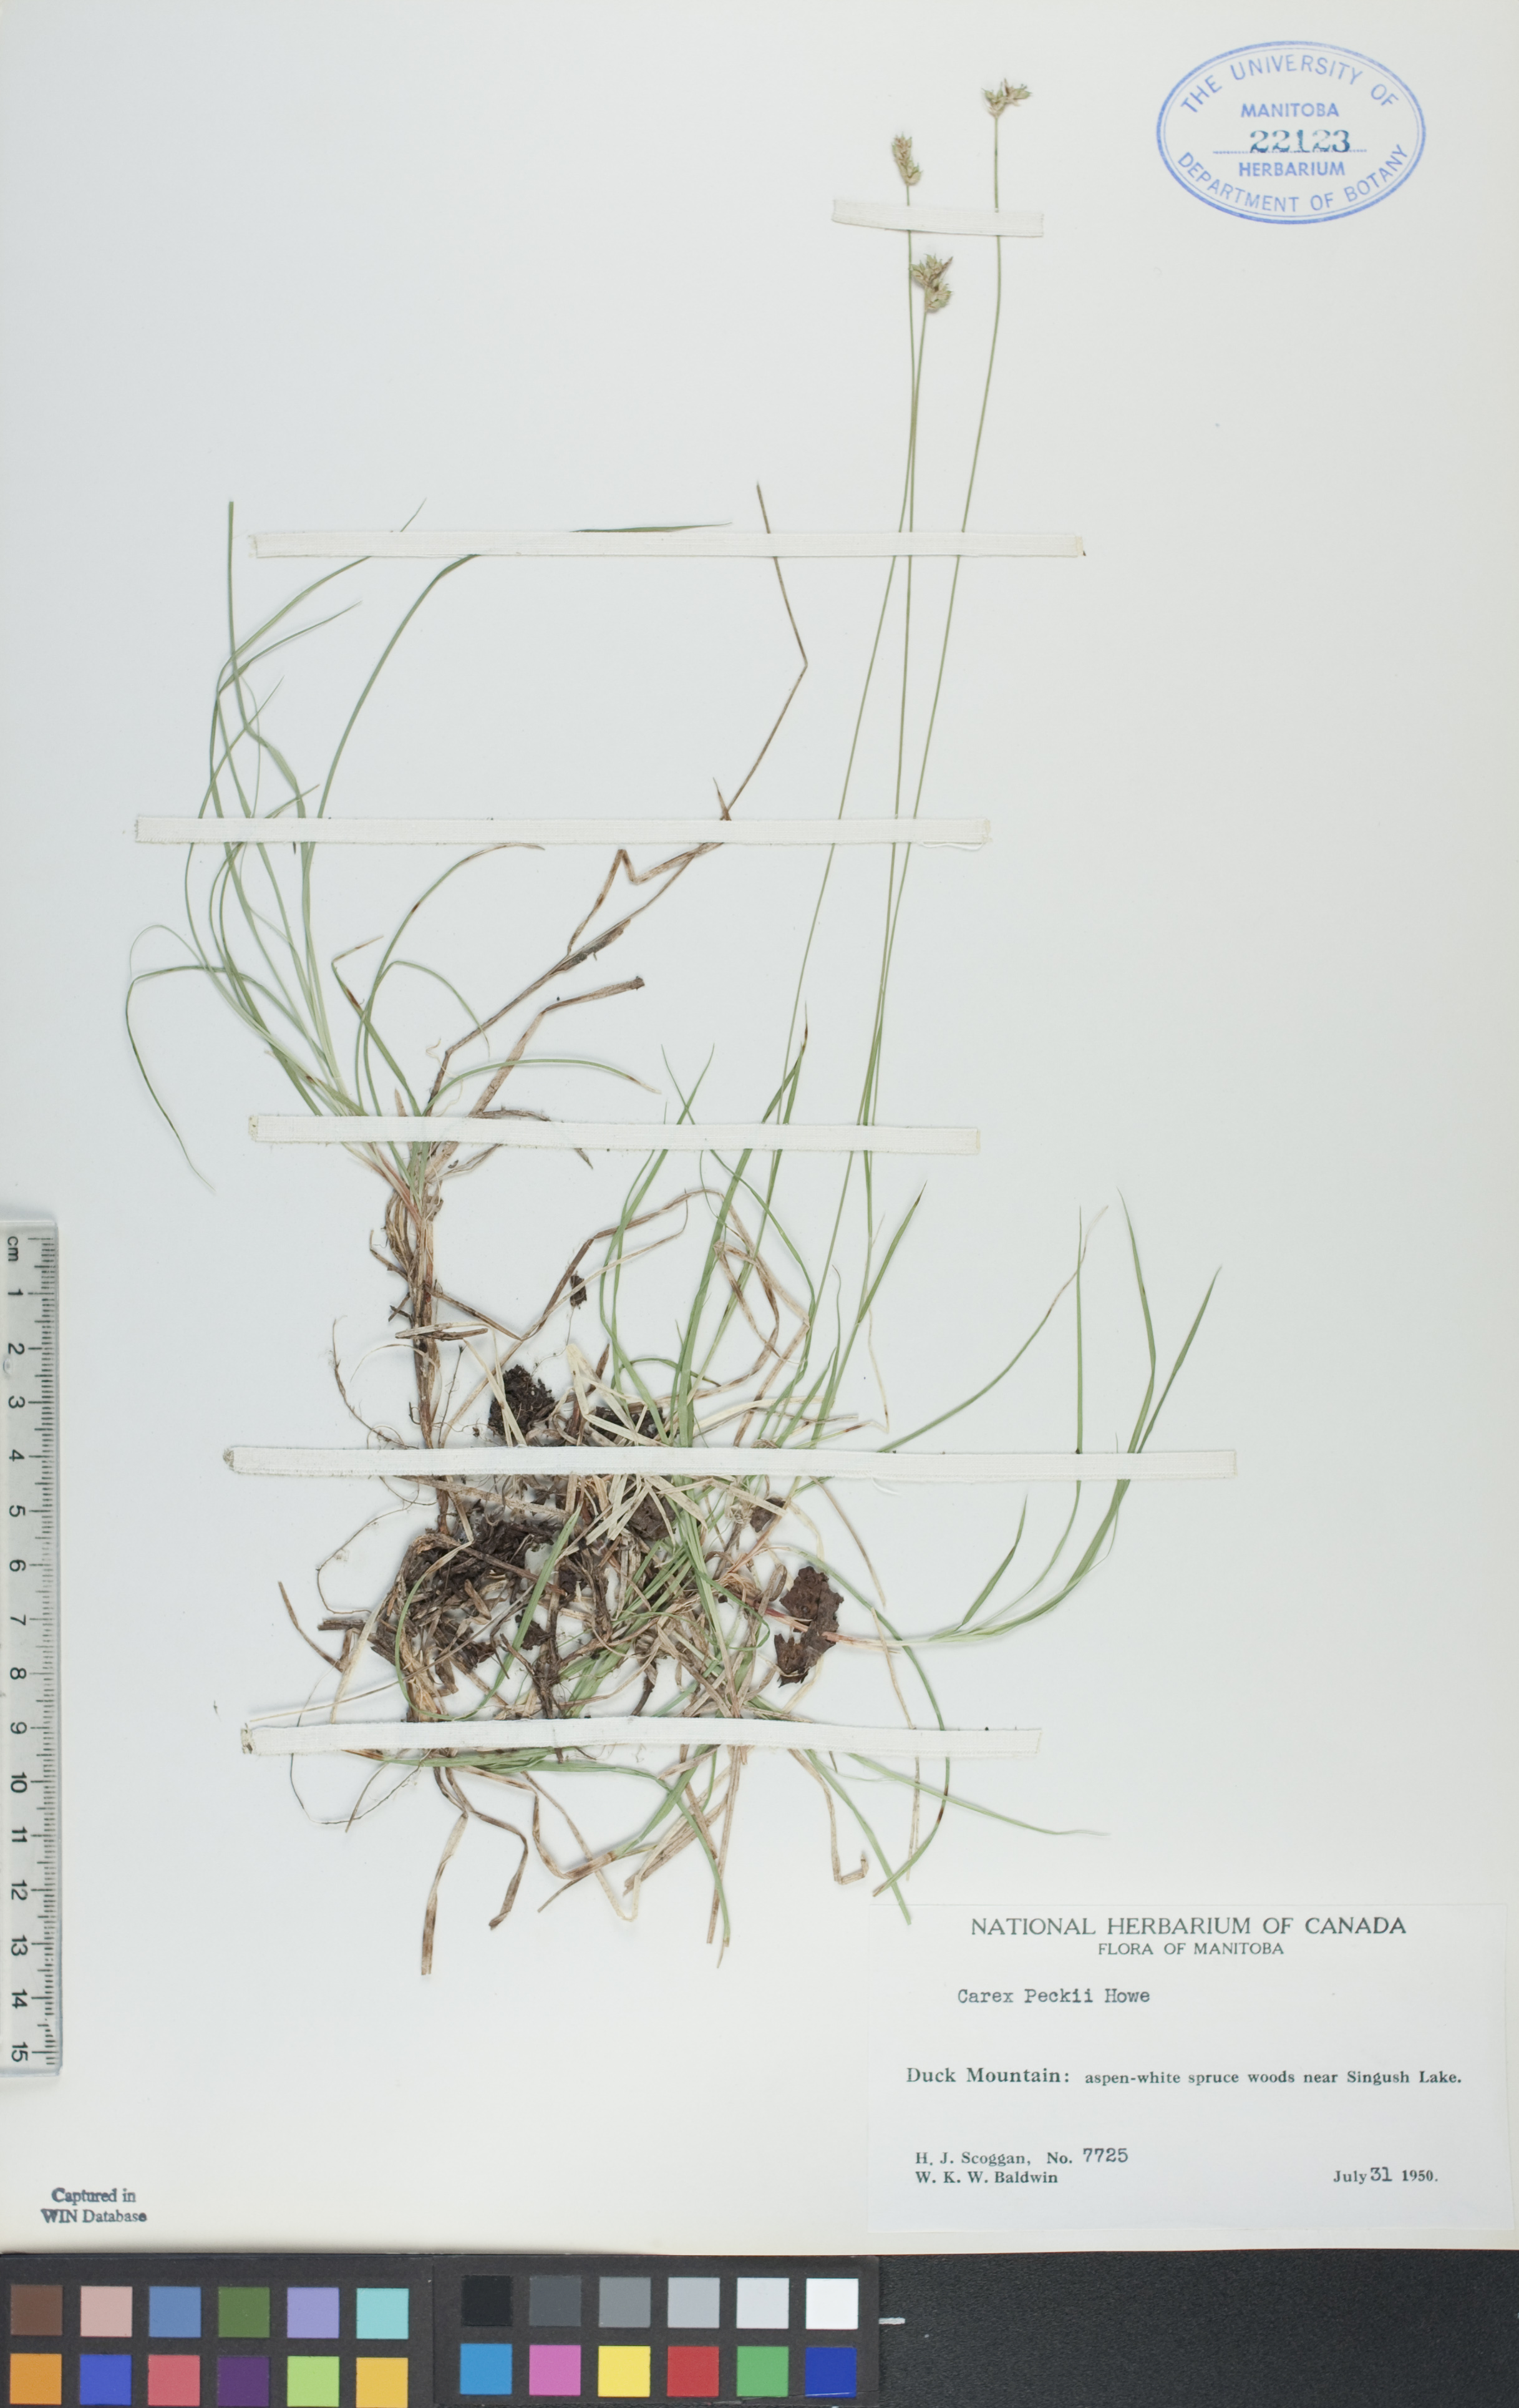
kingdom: Plantae
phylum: Tracheophyta
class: Liliopsida
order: Poales
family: Cyperaceae
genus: Carex
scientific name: Carex peckii
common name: Peck's oak sedge
